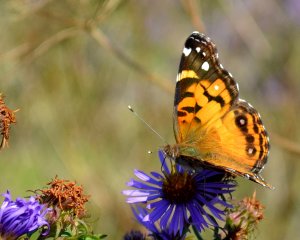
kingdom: Animalia
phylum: Arthropoda
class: Insecta
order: Lepidoptera
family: Nymphalidae
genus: Vanessa
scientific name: Vanessa virginiensis
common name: American Lady
